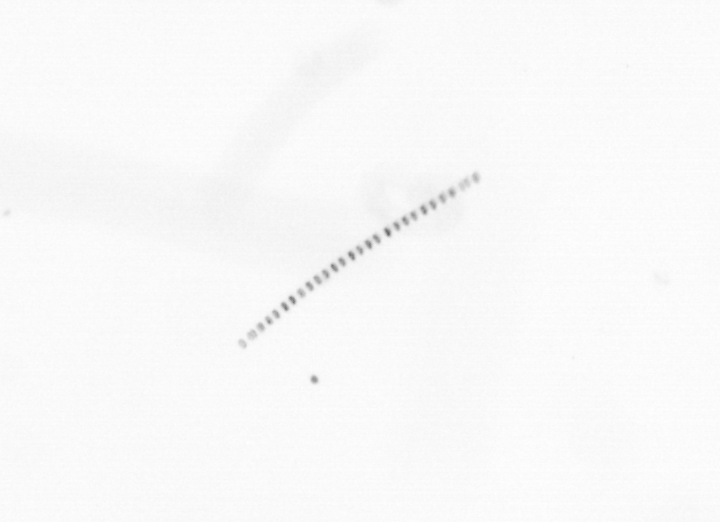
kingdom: Chromista
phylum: Ochrophyta
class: Bacillariophyceae
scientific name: Bacillariophyceae
